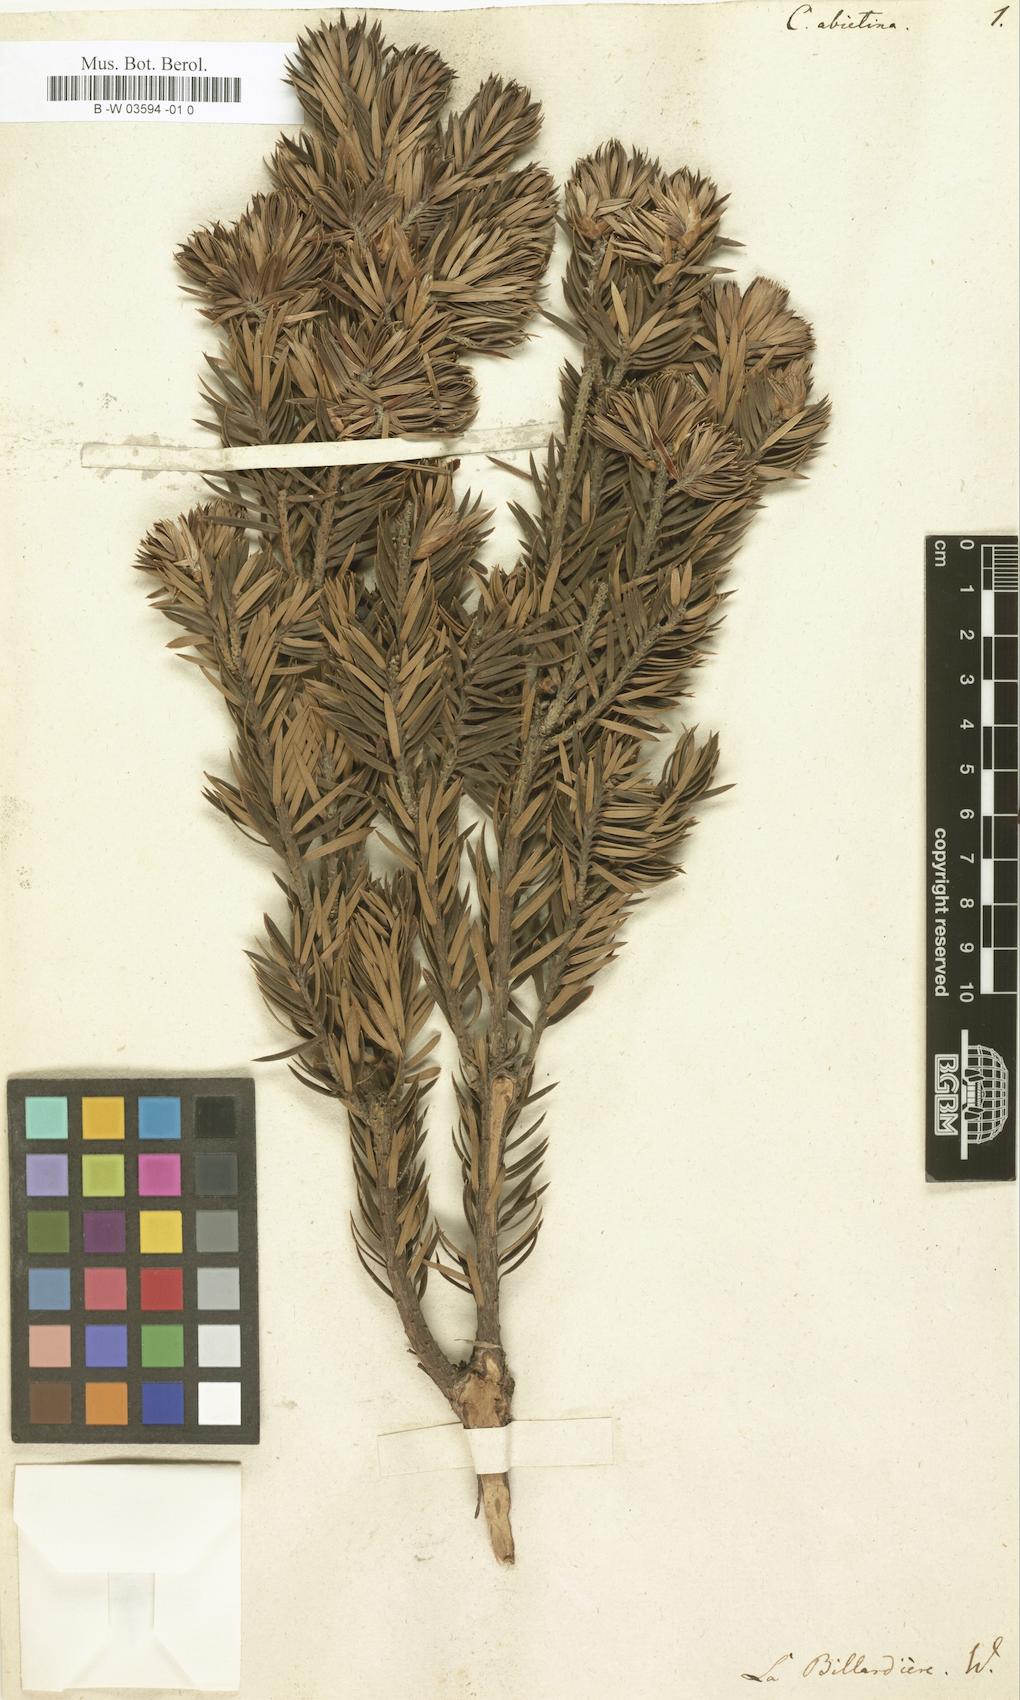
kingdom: Plantae
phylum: Tracheophyta
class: Magnoliopsida
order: Ericales
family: Ericaceae
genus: Leptecophylla
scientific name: Leptecophylla abietina
